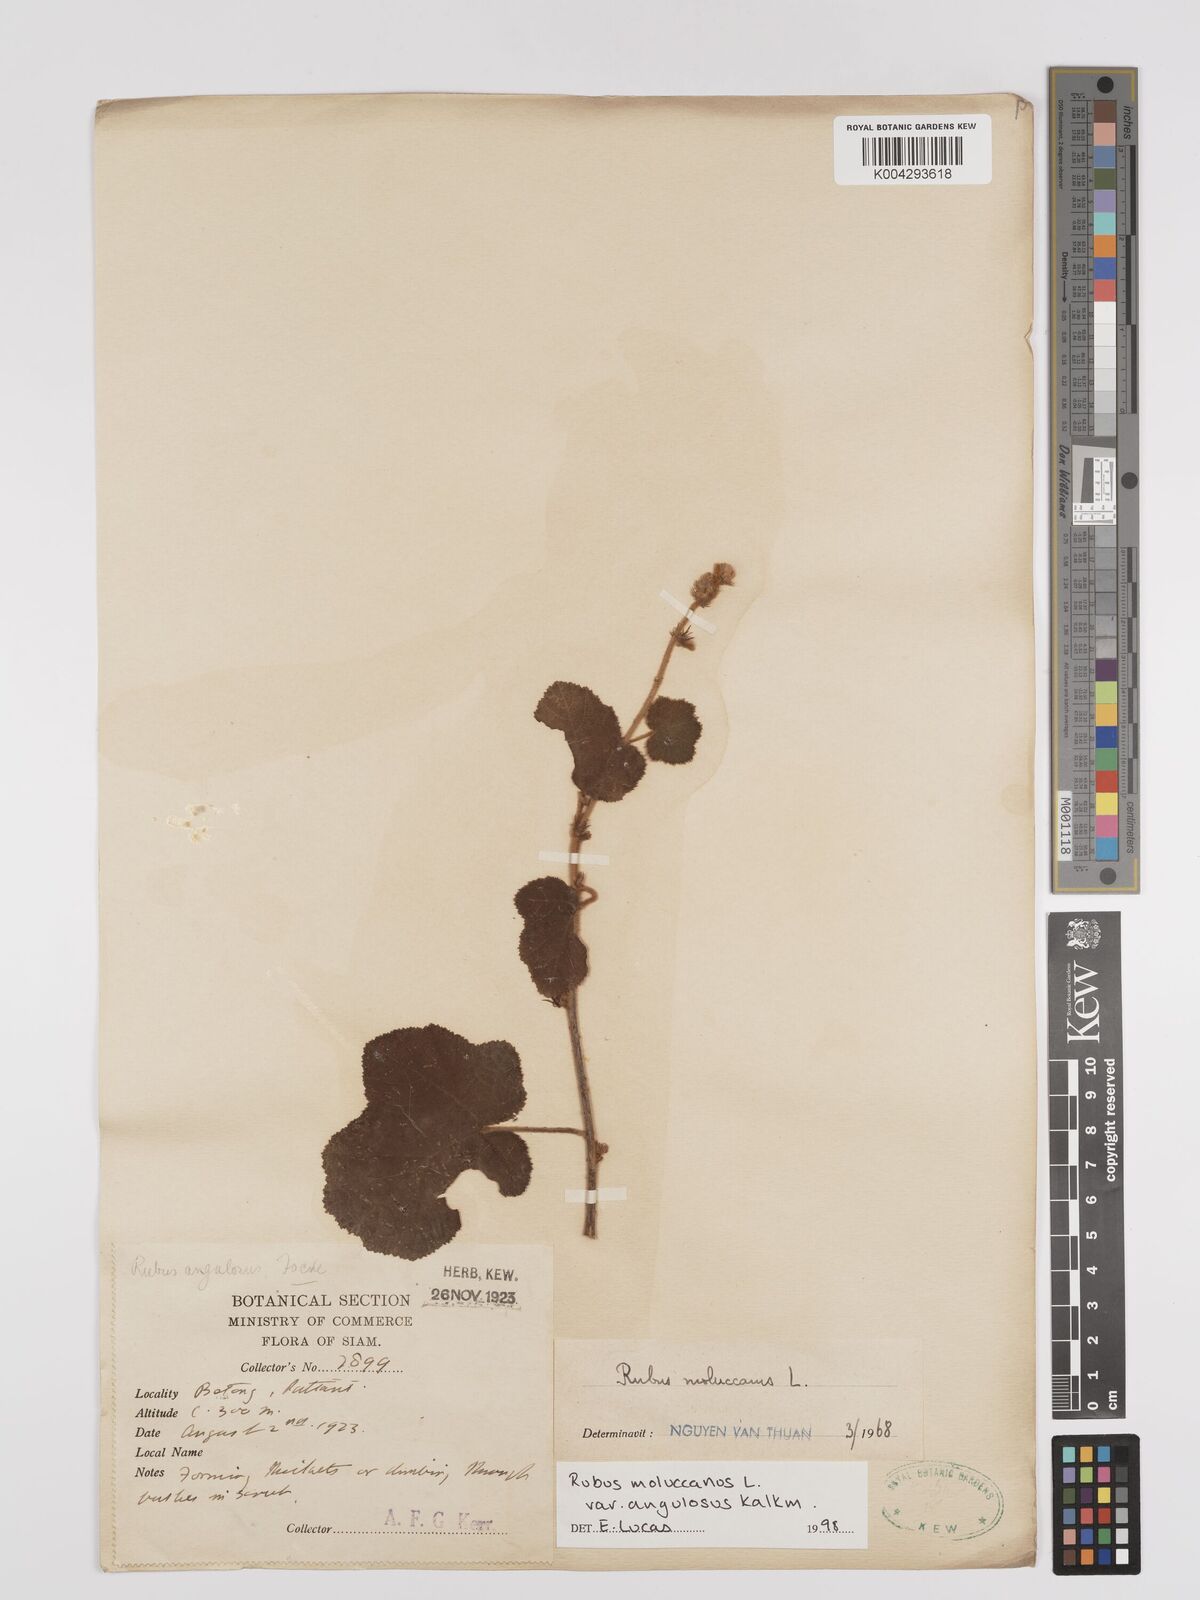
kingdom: Plantae
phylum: Tracheophyta
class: Magnoliopsida
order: Rosales
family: Rosaceae
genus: Rubus
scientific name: Rubus moluccanus
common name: Wild raspberry
